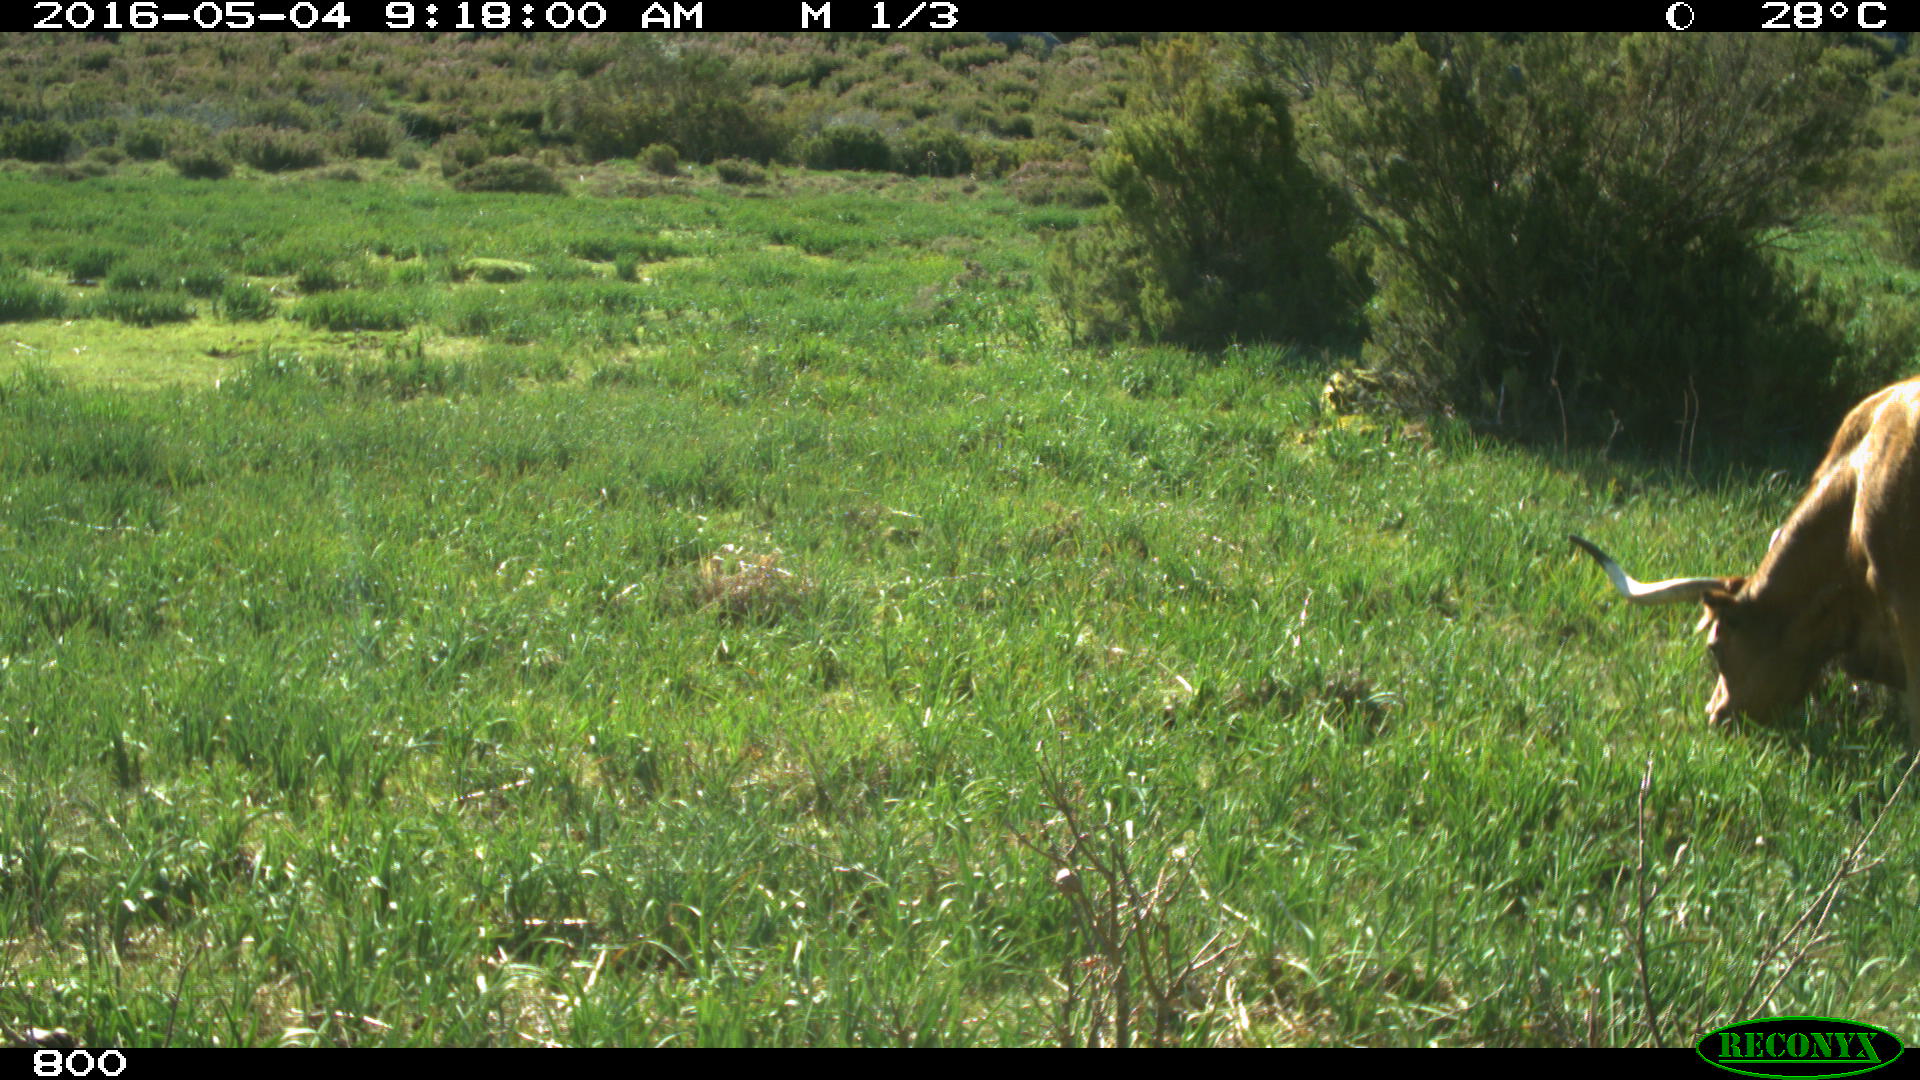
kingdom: Animalia
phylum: Chordata
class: Mammalia
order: Artiodactyla
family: Bovidae
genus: Bos
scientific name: Bos taurus
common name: Domesticated cattle
